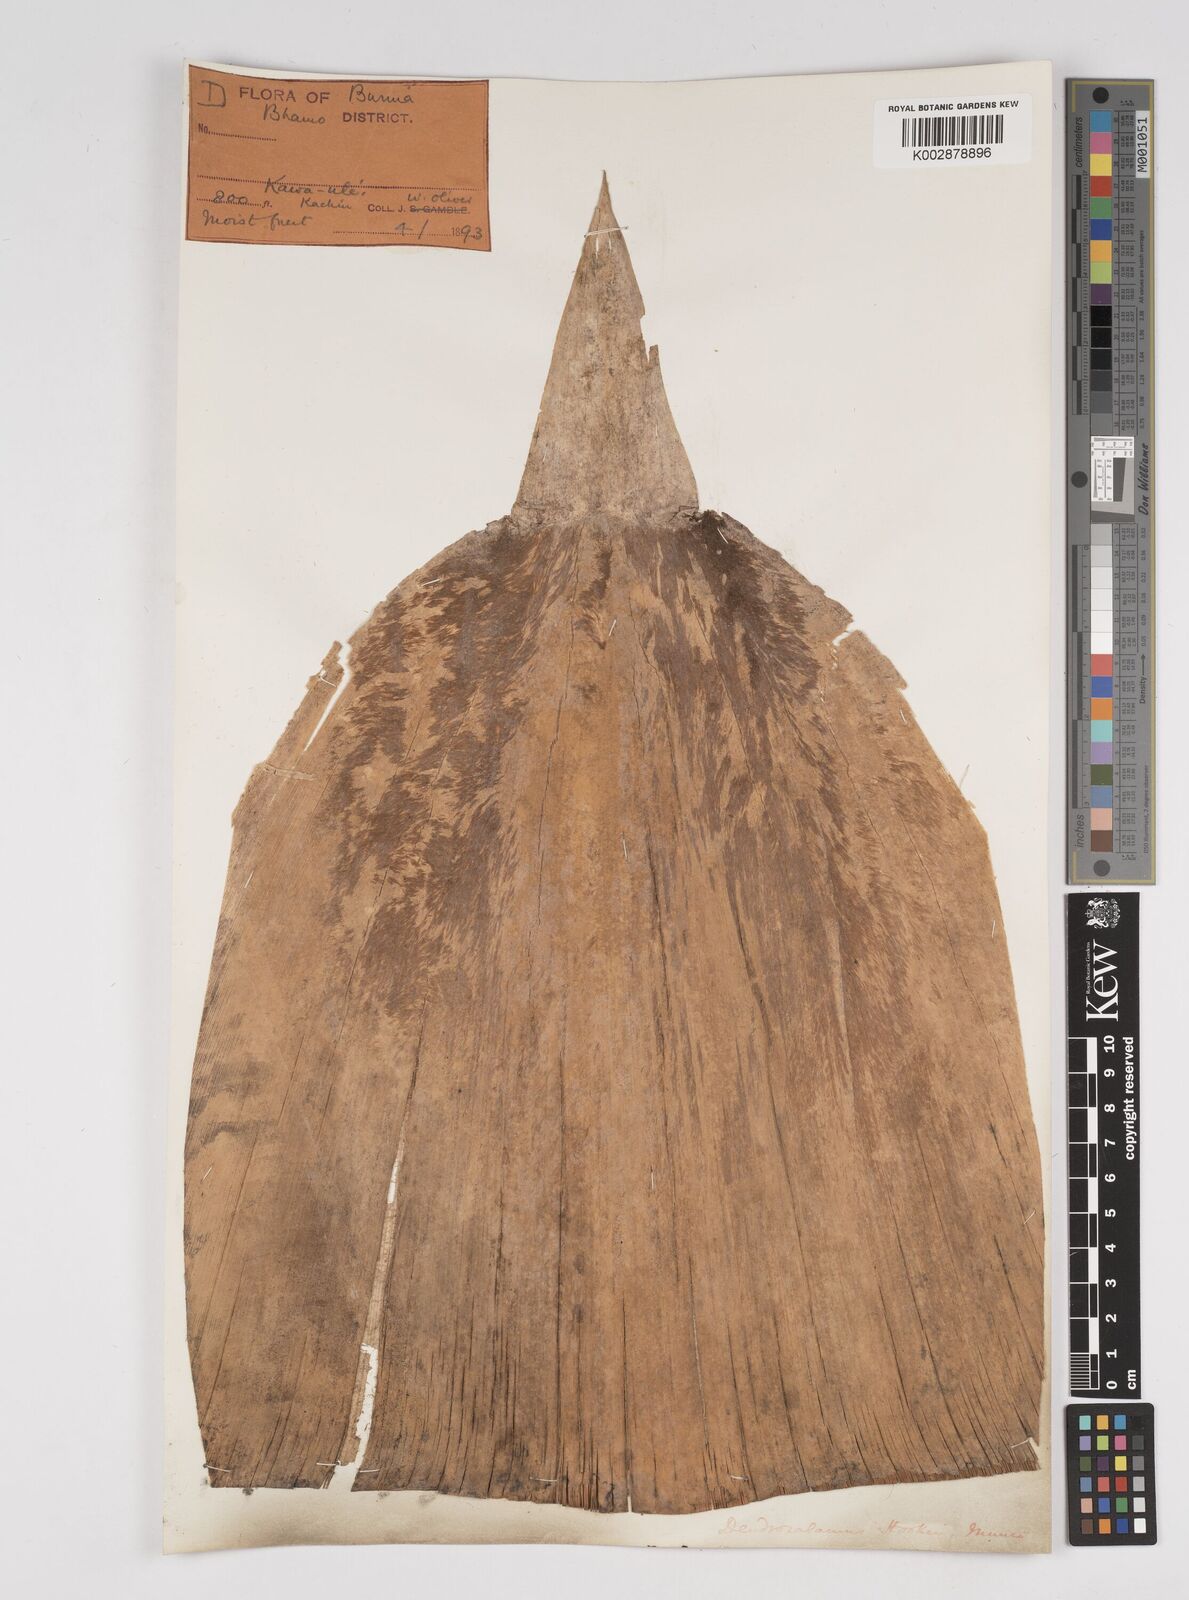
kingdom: Plantae
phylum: Tracheophyta
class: Liliopsida
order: Poales
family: Poaceae
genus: Dendrocalamus
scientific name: Dendrocalamus hookeri
